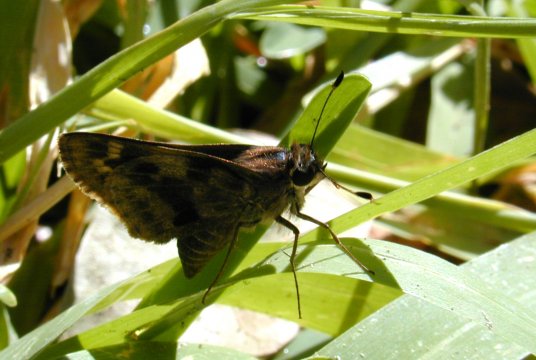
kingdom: Animalia
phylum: Arthropoda
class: Insecta
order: Lepidoptera
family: Hesperiidae
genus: Pompeius
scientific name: Pompeius pompeius
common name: Pompeius Skipper
